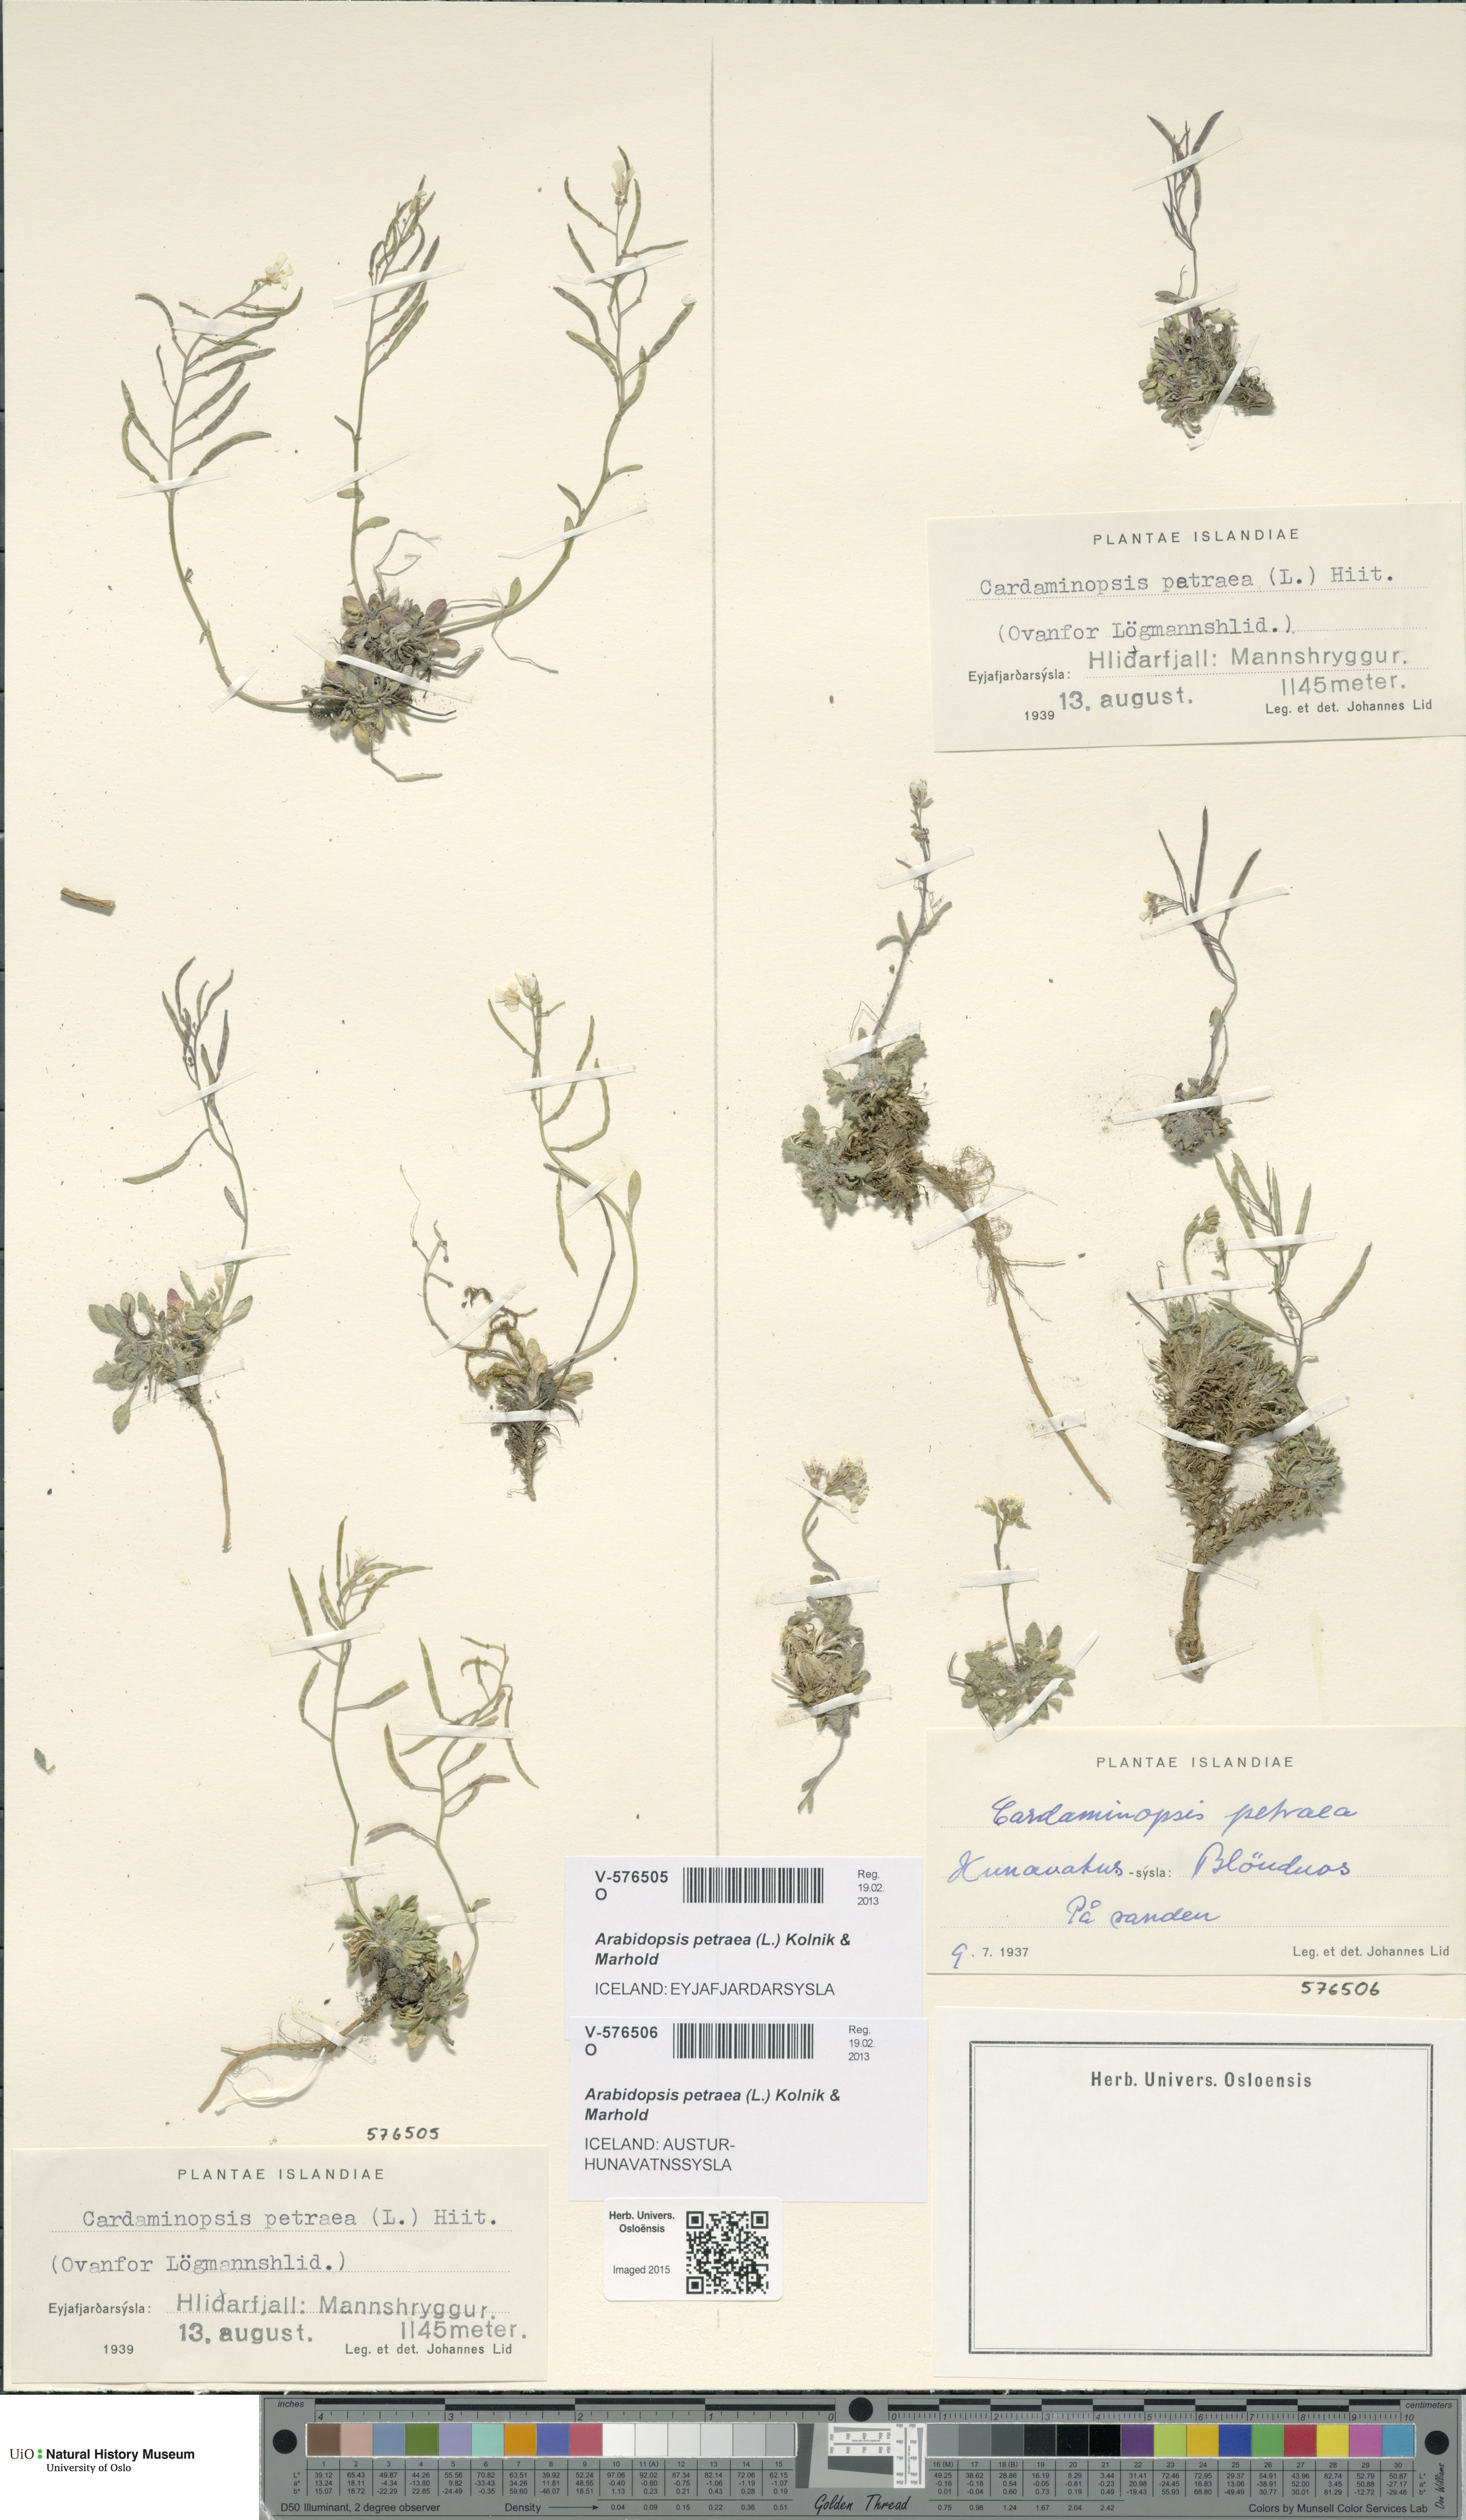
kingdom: Plantae
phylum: Tracheophyta
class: Magnoliopsida
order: Brassicales
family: Brassicaceae
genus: Arabidopsis
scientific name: Arabidopsis petraea
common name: Northern rock-cress
